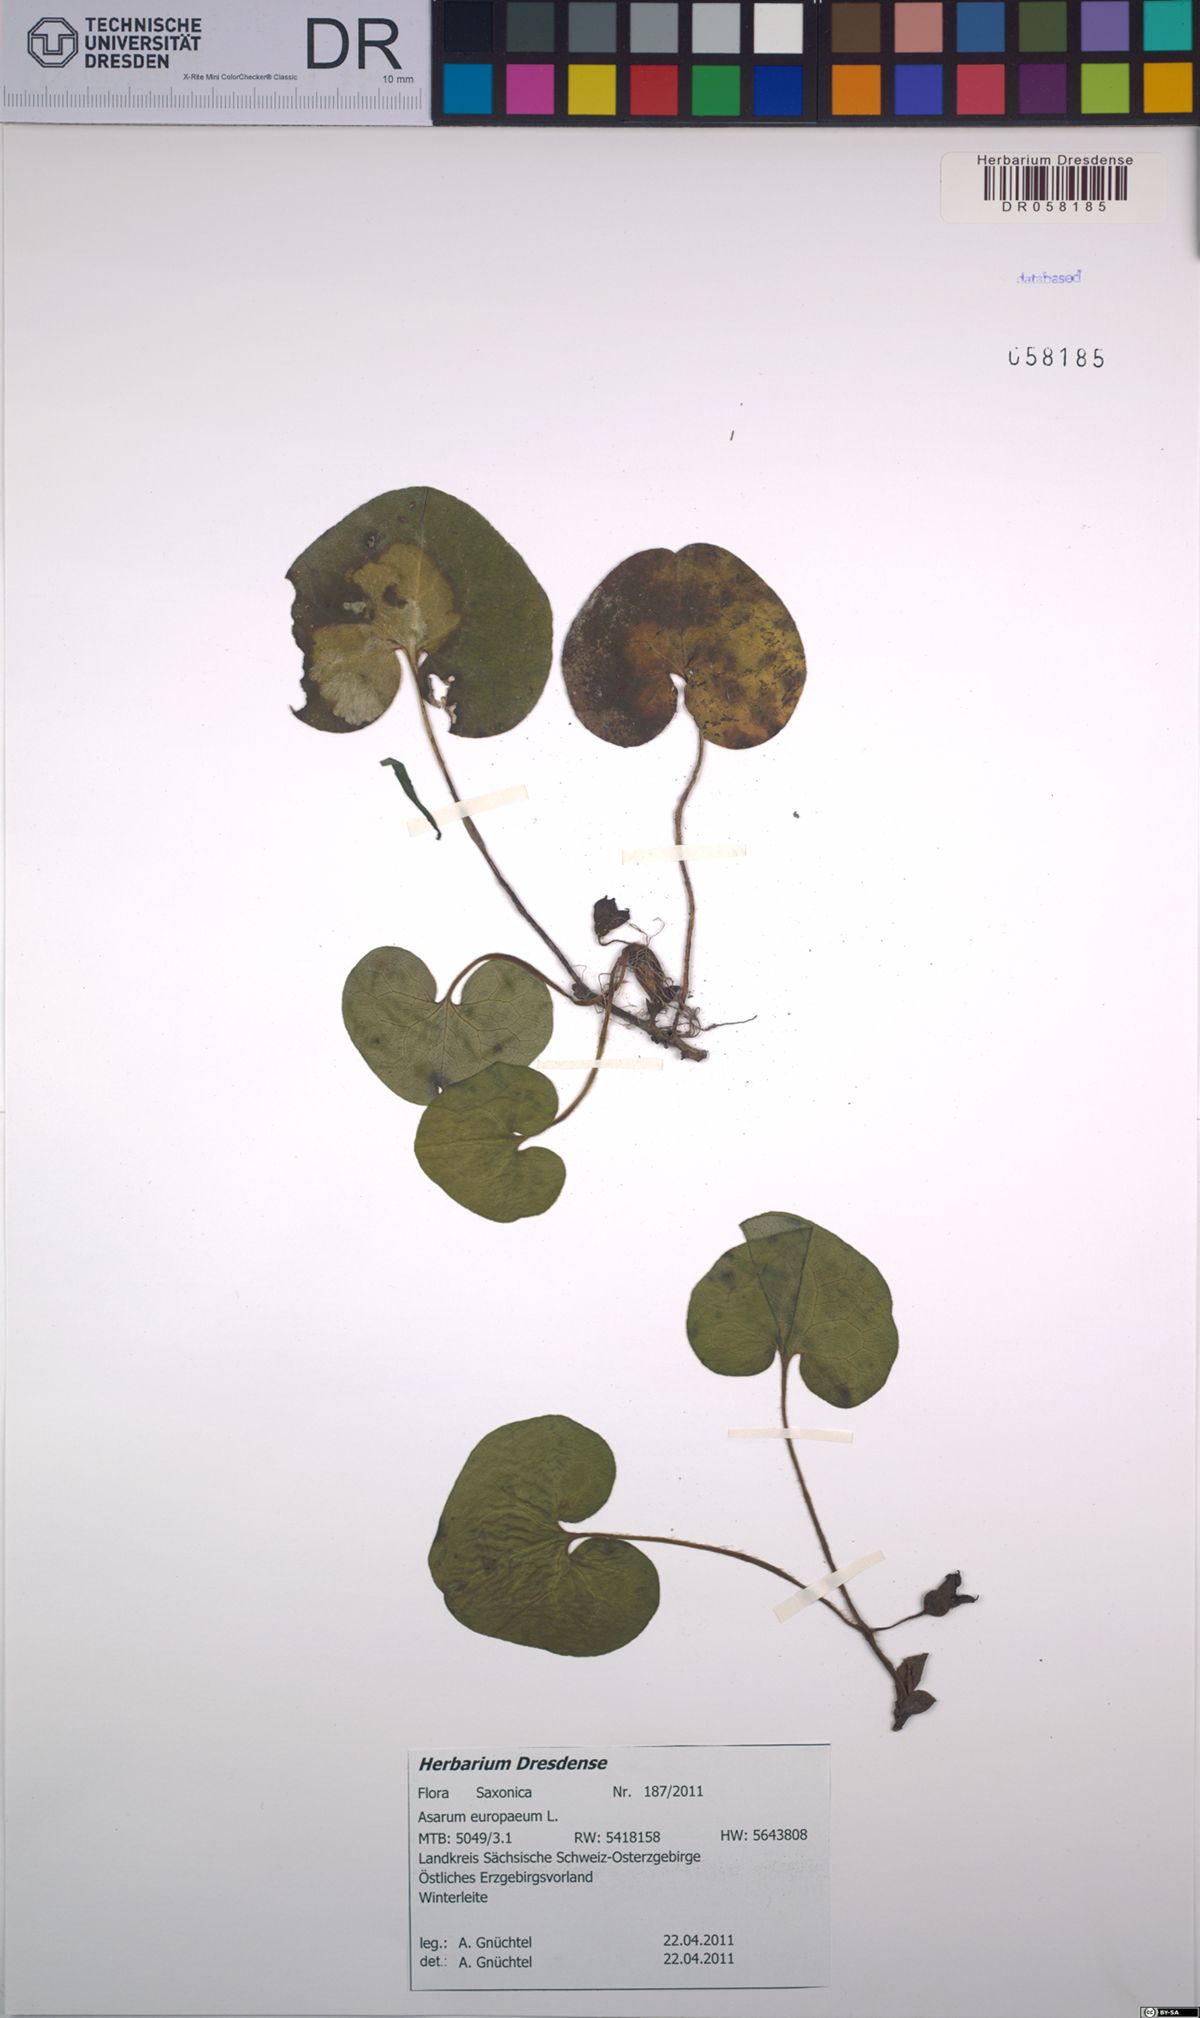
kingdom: Plantae
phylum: Tracheophyta
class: Magnoliopsida
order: Piperales
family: Aristolochiaceae
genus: Asarum
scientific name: Asarum europaeum
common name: Asarabacca
